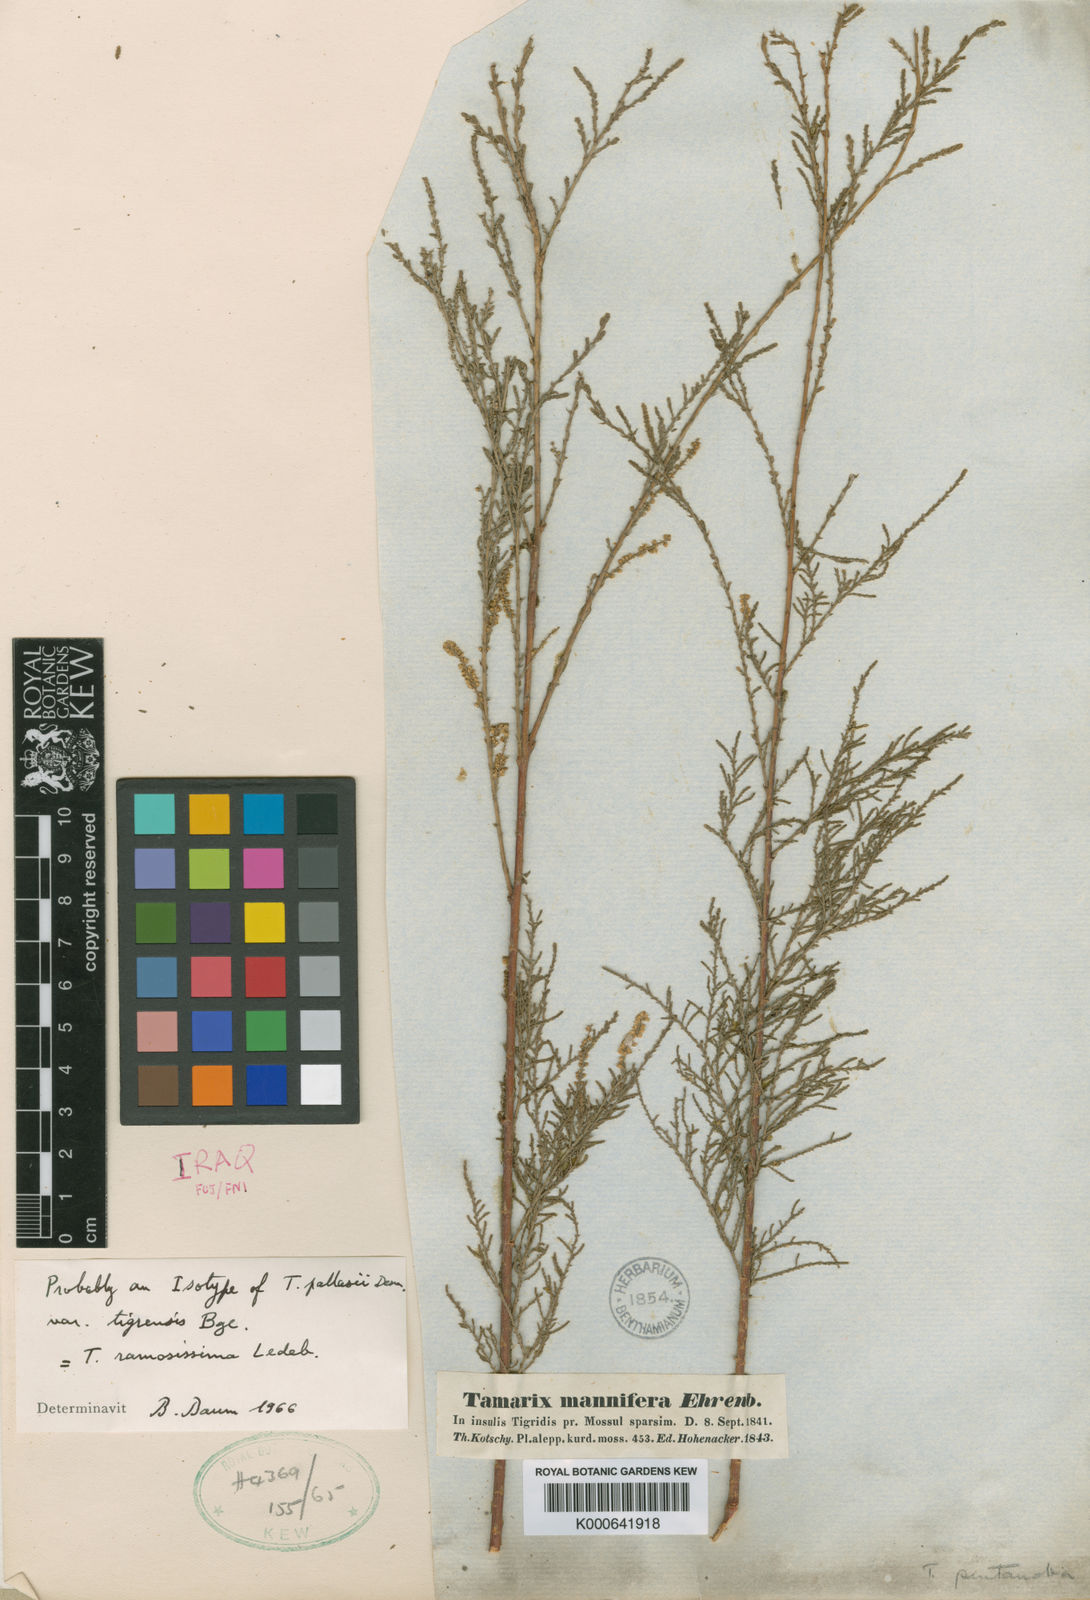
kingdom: Plantae
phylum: Tracheophyta
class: Magnoliopsida
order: Caryophyllales
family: Tamaricaceae
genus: Tamarix
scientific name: Tamarix ramosissima
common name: Pink tamarisk
